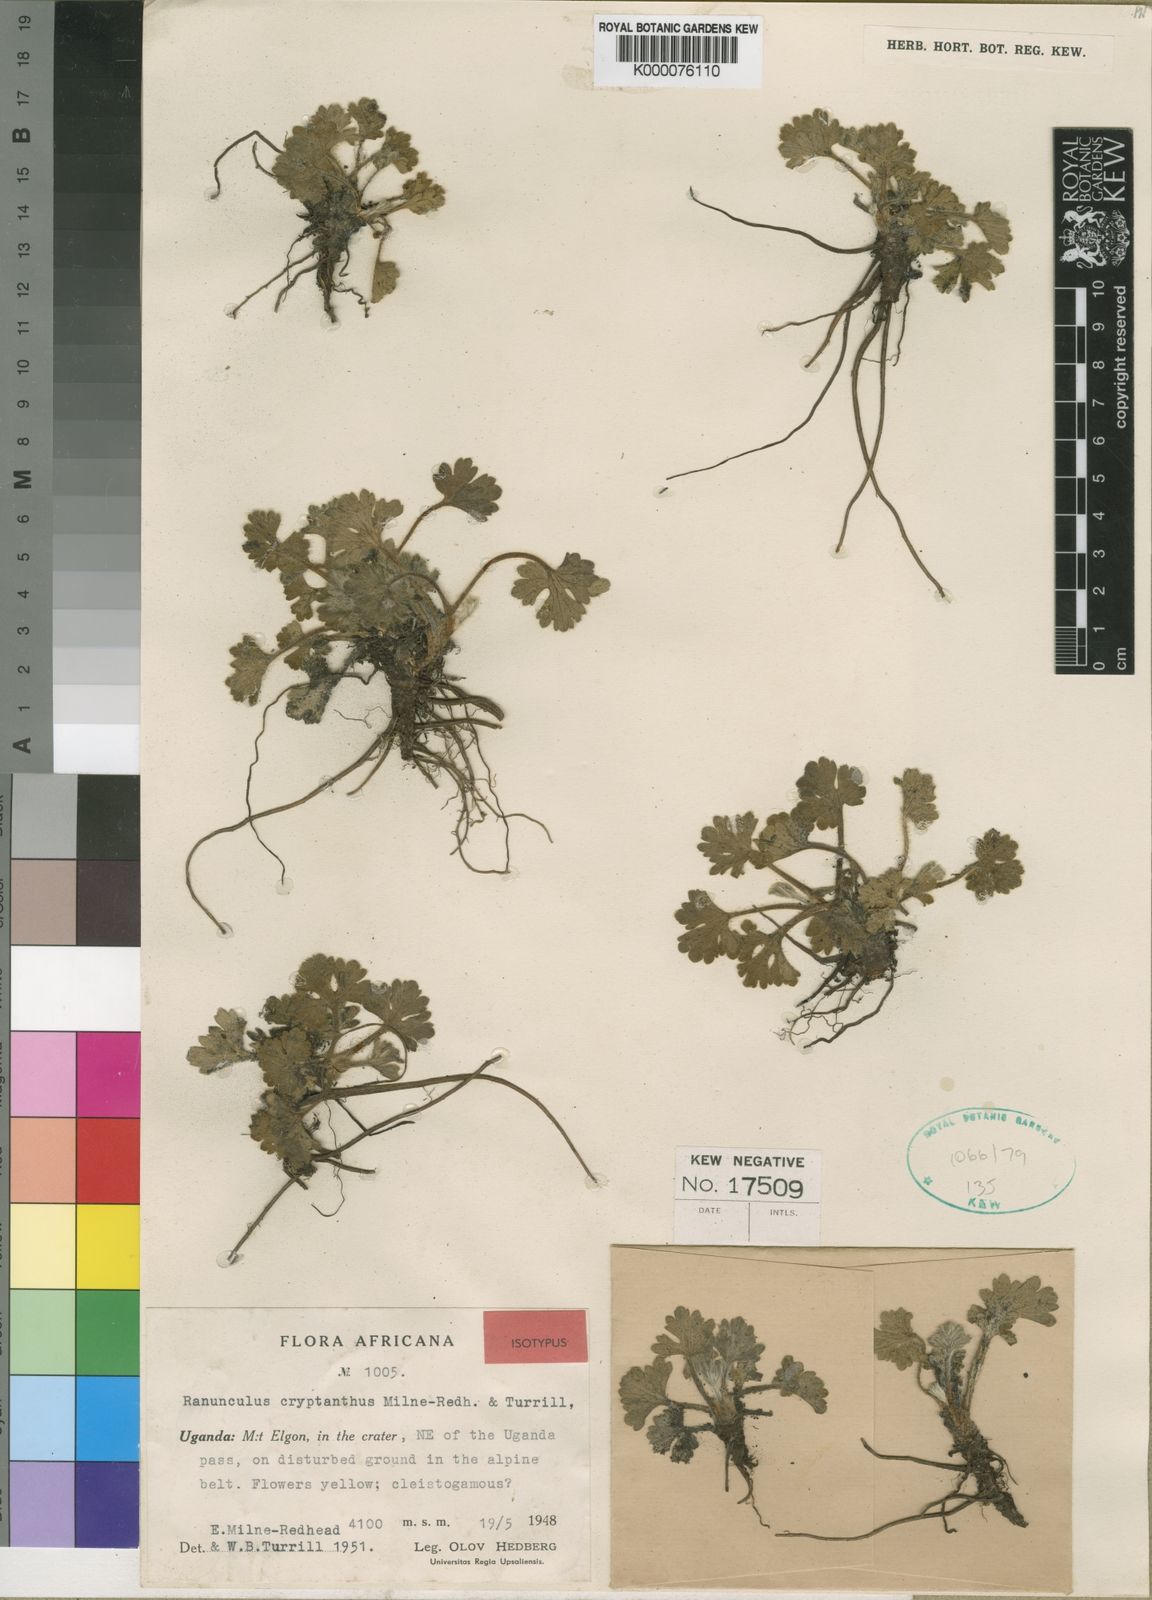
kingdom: Plantae
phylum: Tracheophyta
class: Magnoliopsida
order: Ranunculales
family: Ranunculaceae
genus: Ranunculus
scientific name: Ranunculus cryptanthus
